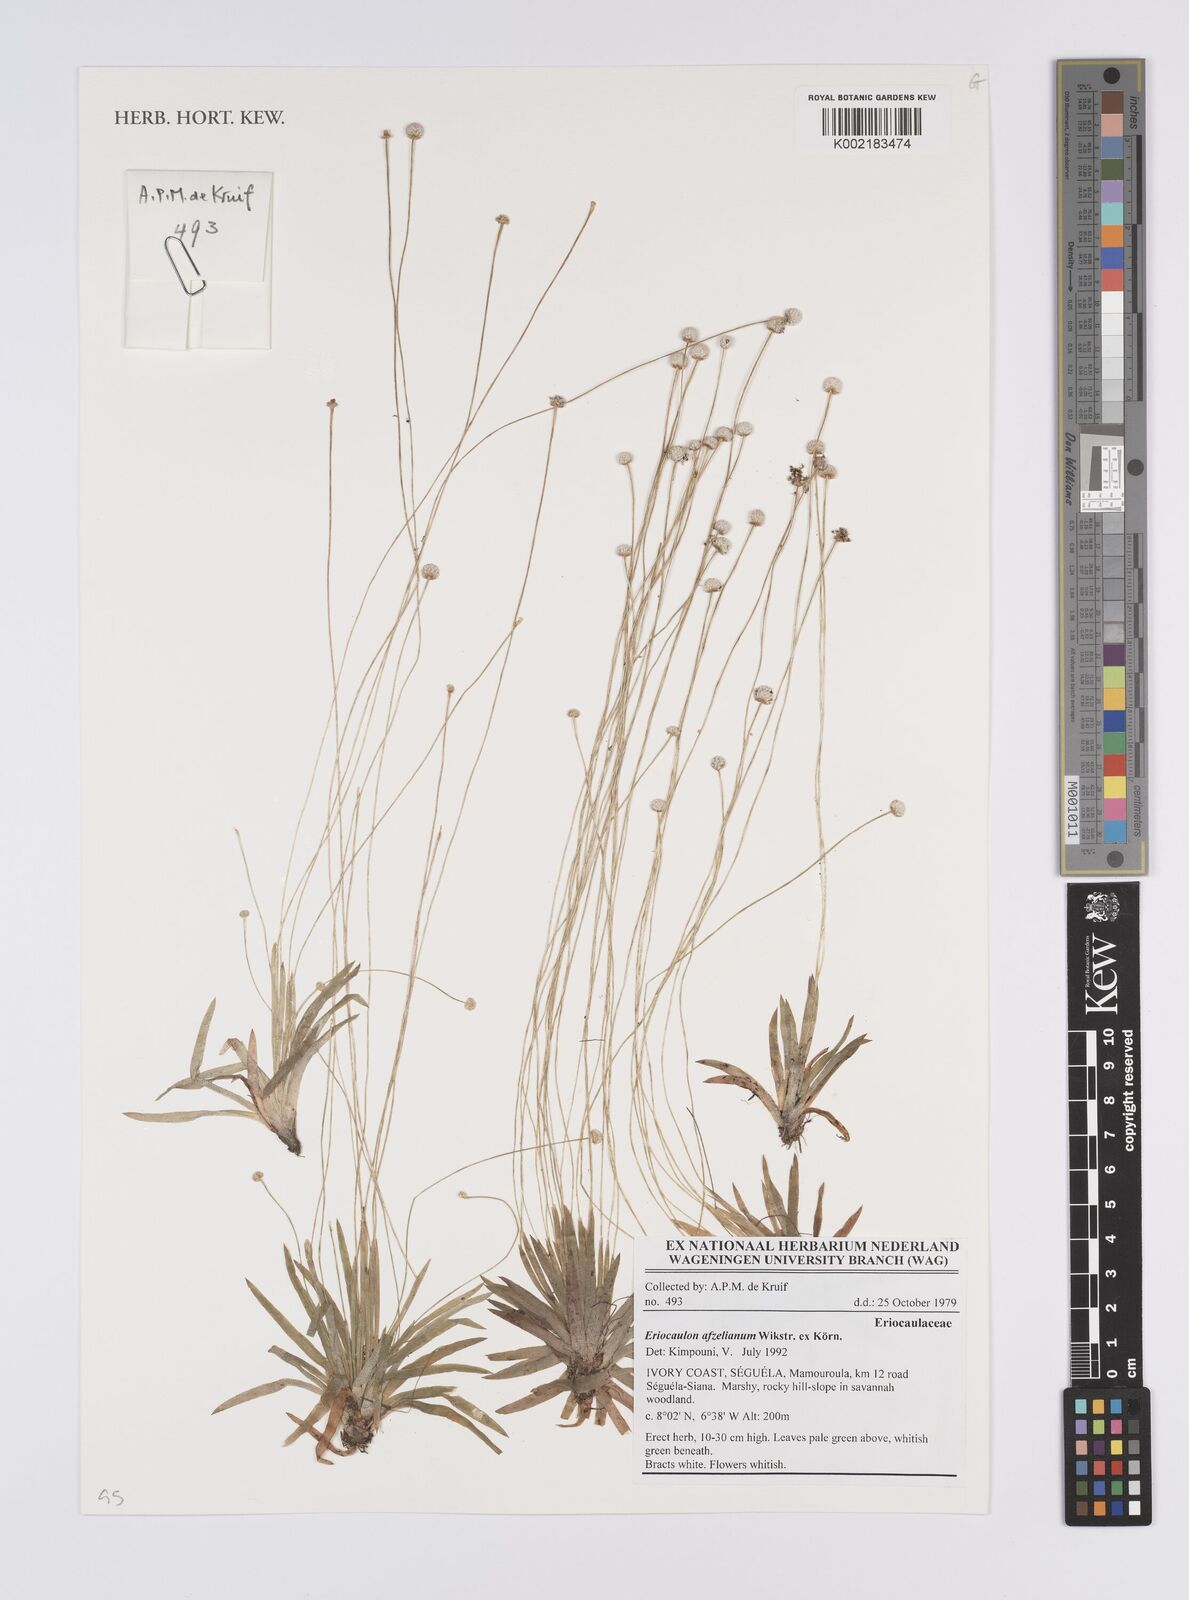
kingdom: Plantae
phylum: Tracheophyta
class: Liliopsida
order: Poales
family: Eriocaulaceae
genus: Eriocaulon
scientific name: Eriocaulon afzelianum
